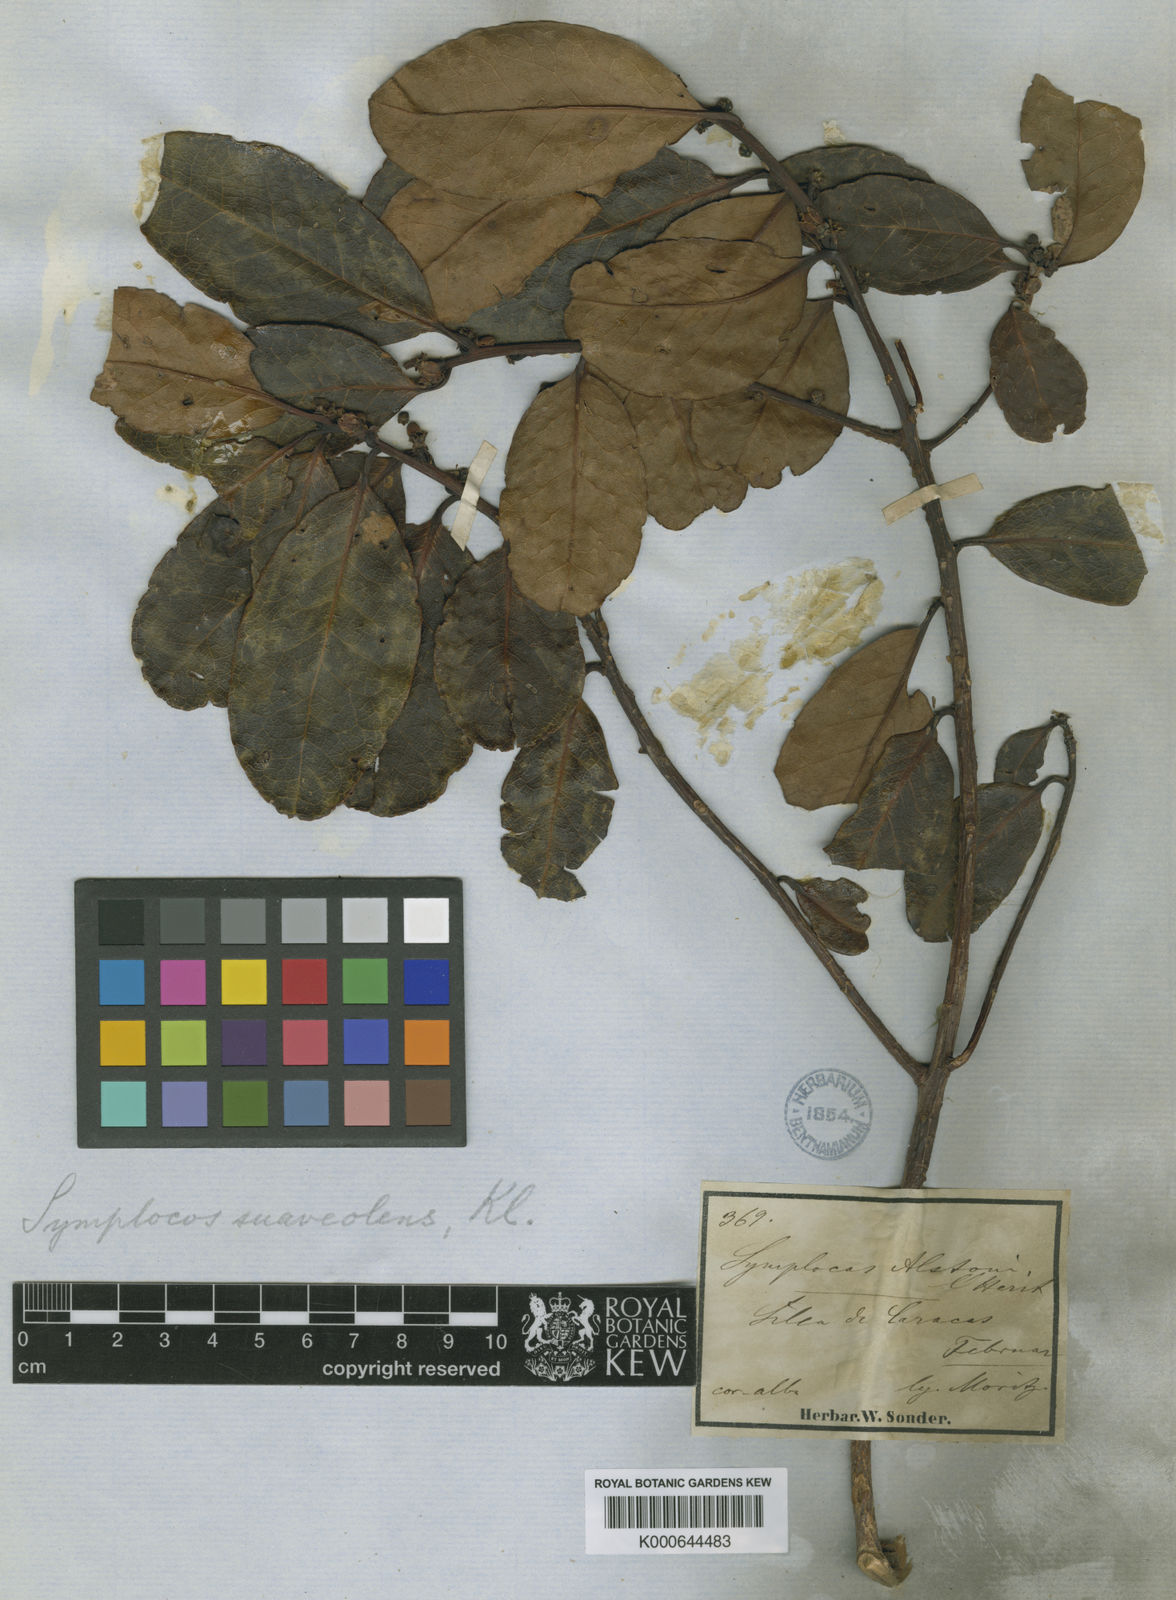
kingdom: Plantae
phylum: Tracheophyta
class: Magnoliopsida
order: Ericales
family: Symplocaceae
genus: Symplocos
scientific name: Symplocos
